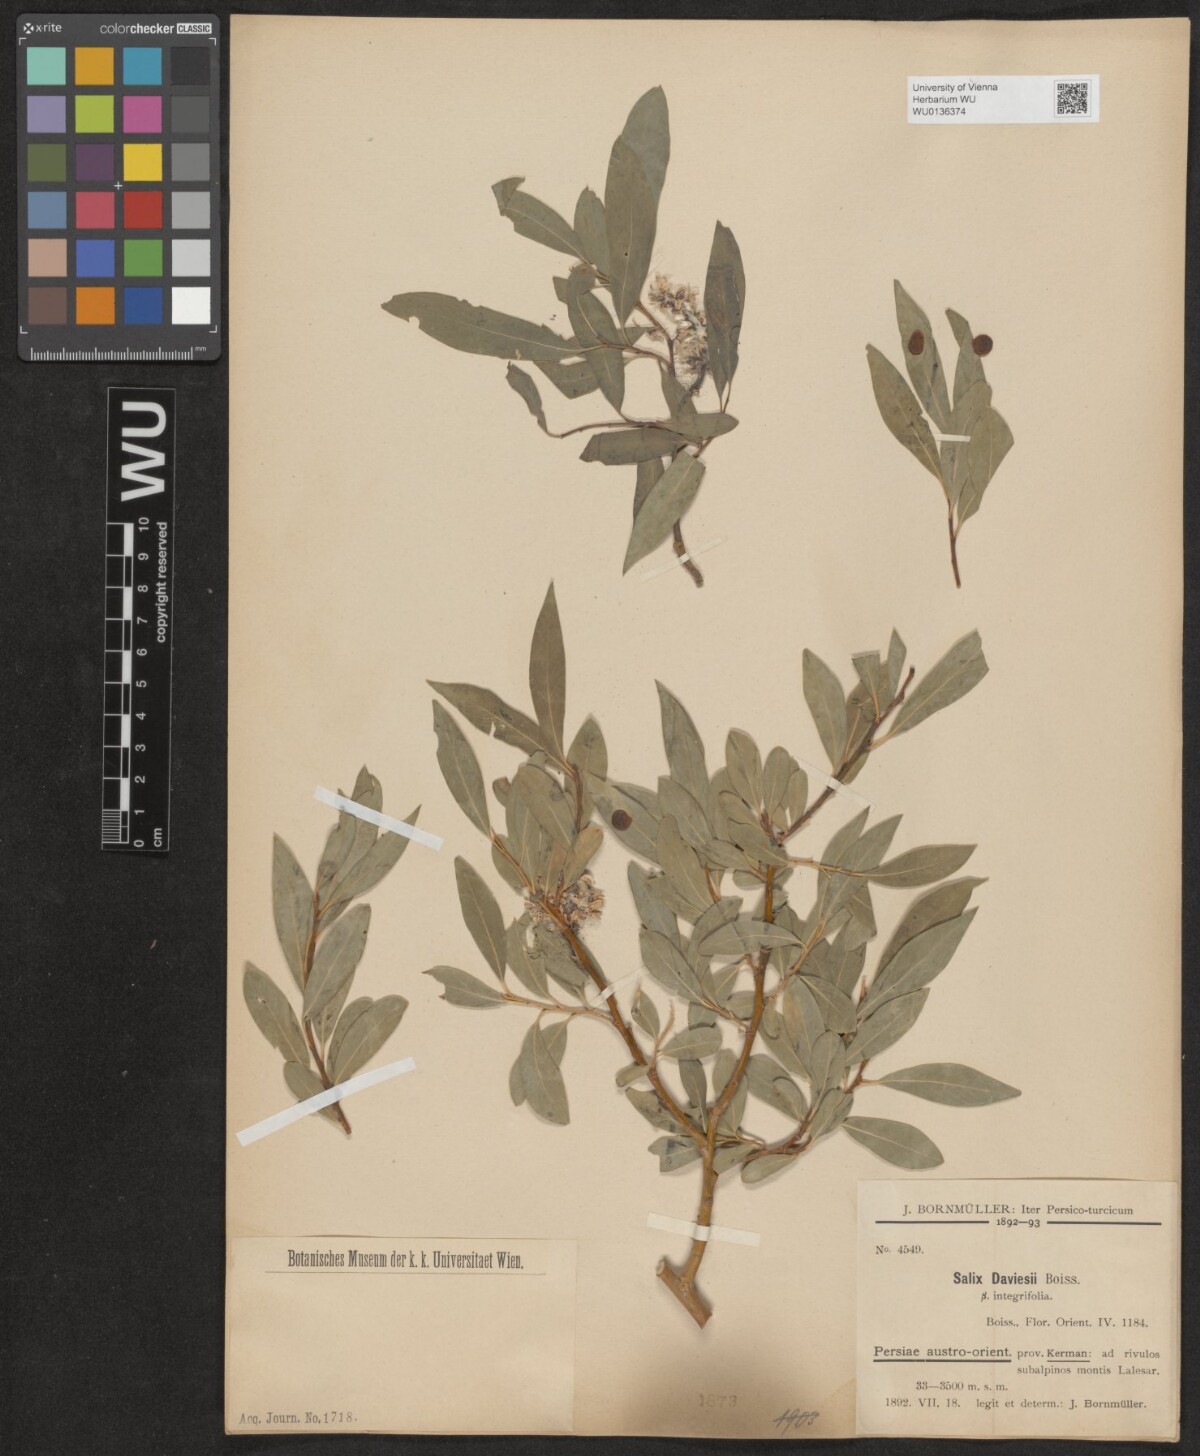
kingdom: Plantae
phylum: Tracheophyta
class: Magnoliopsida
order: Malpighiales
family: Salicaceae
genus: Salix
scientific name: Salix acmophylla
